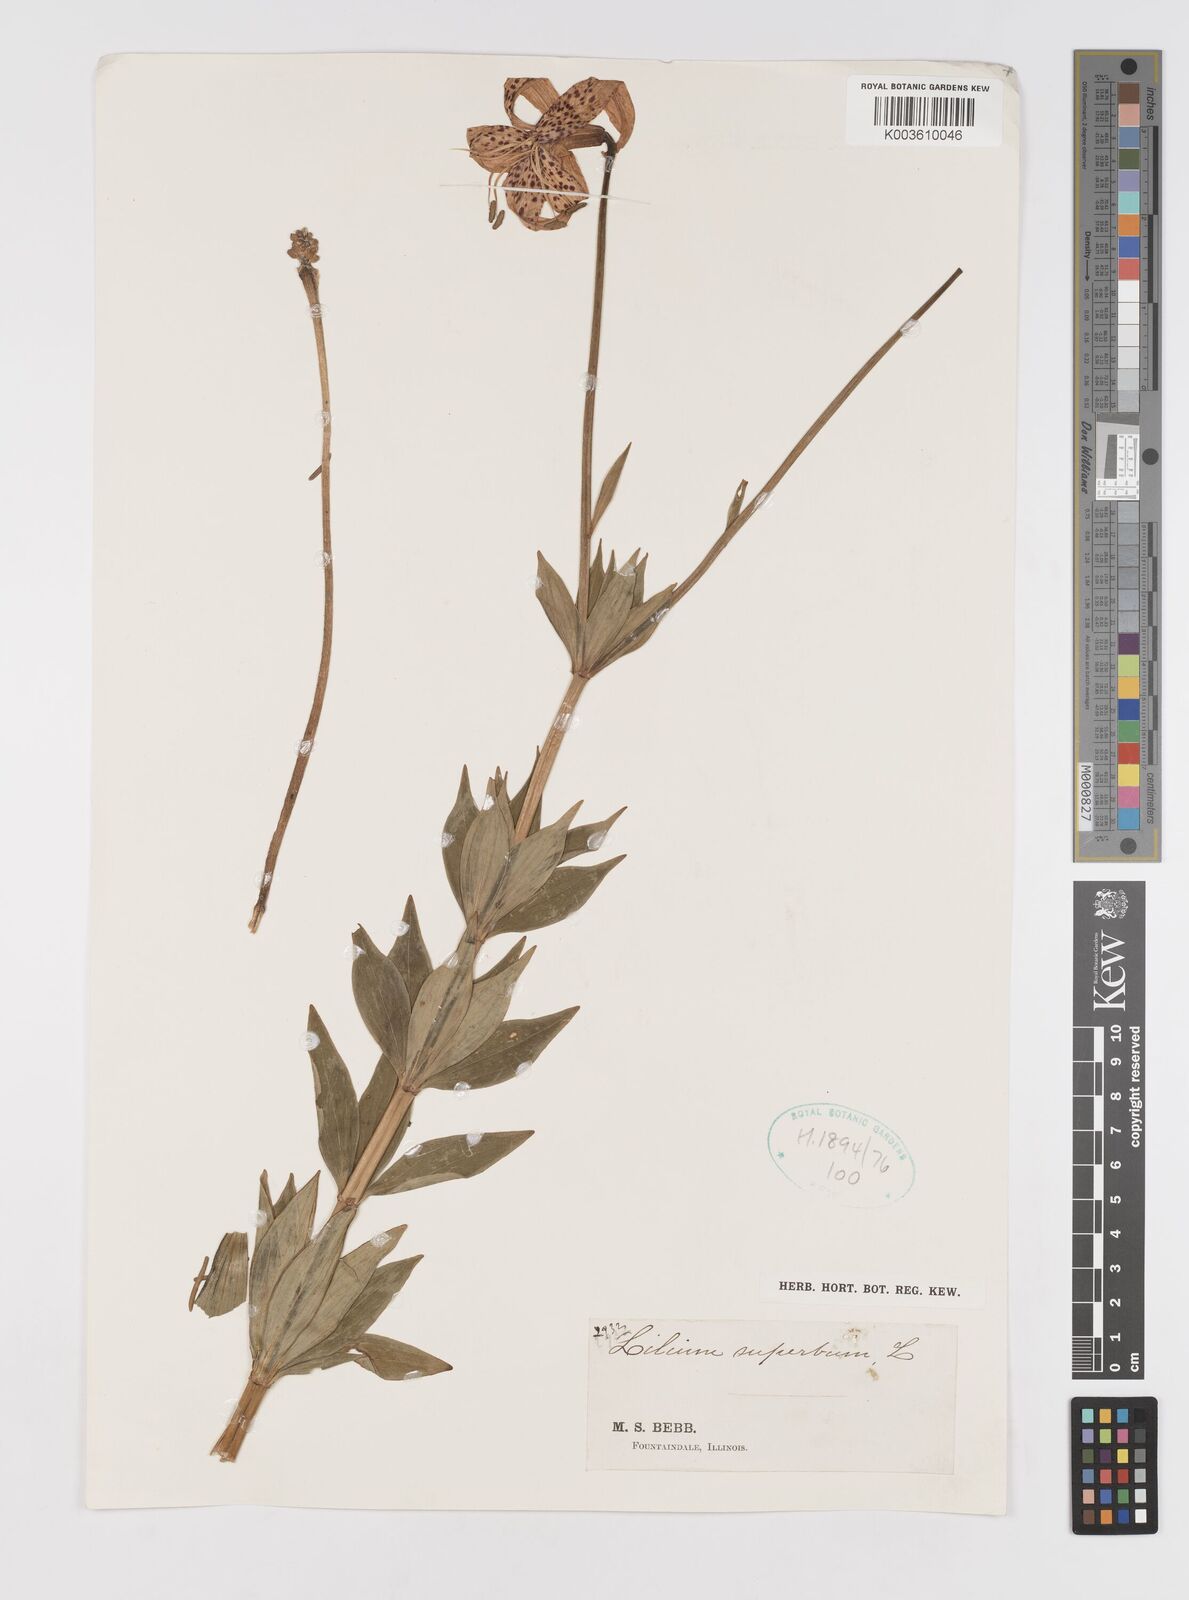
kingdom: Plantae
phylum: Tracheophyta
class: Liliopsida
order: Liliales
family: Liliaceae
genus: Lilium
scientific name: Lilium superbum
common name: American turk's-cap lily
